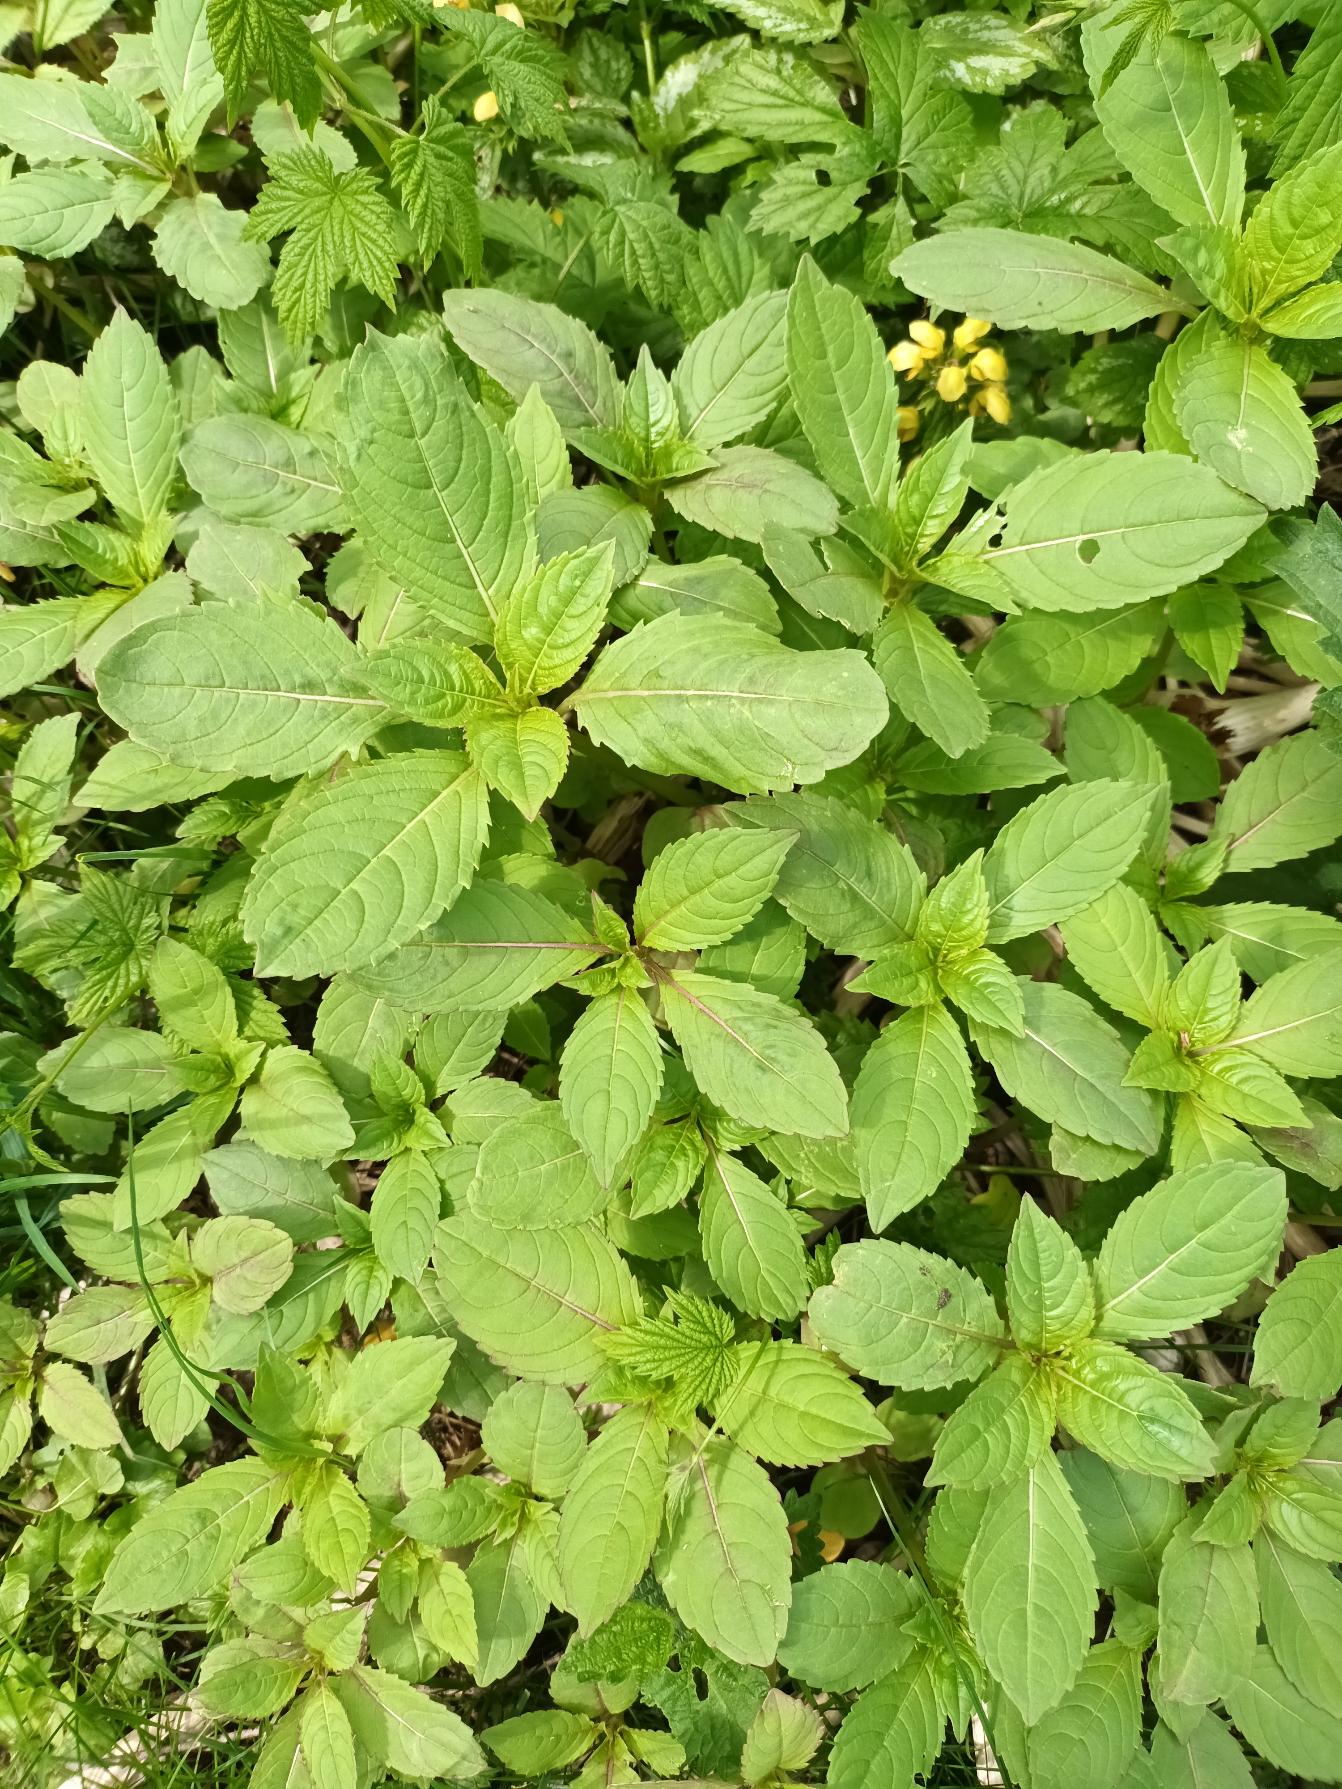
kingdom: Plantae
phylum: Tracheophyta
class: Magnoliopsida
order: Ericales
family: Balsaminaceae
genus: Impatiens
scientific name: Impatiens glandulifera
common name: Kæmpe-balsamin
